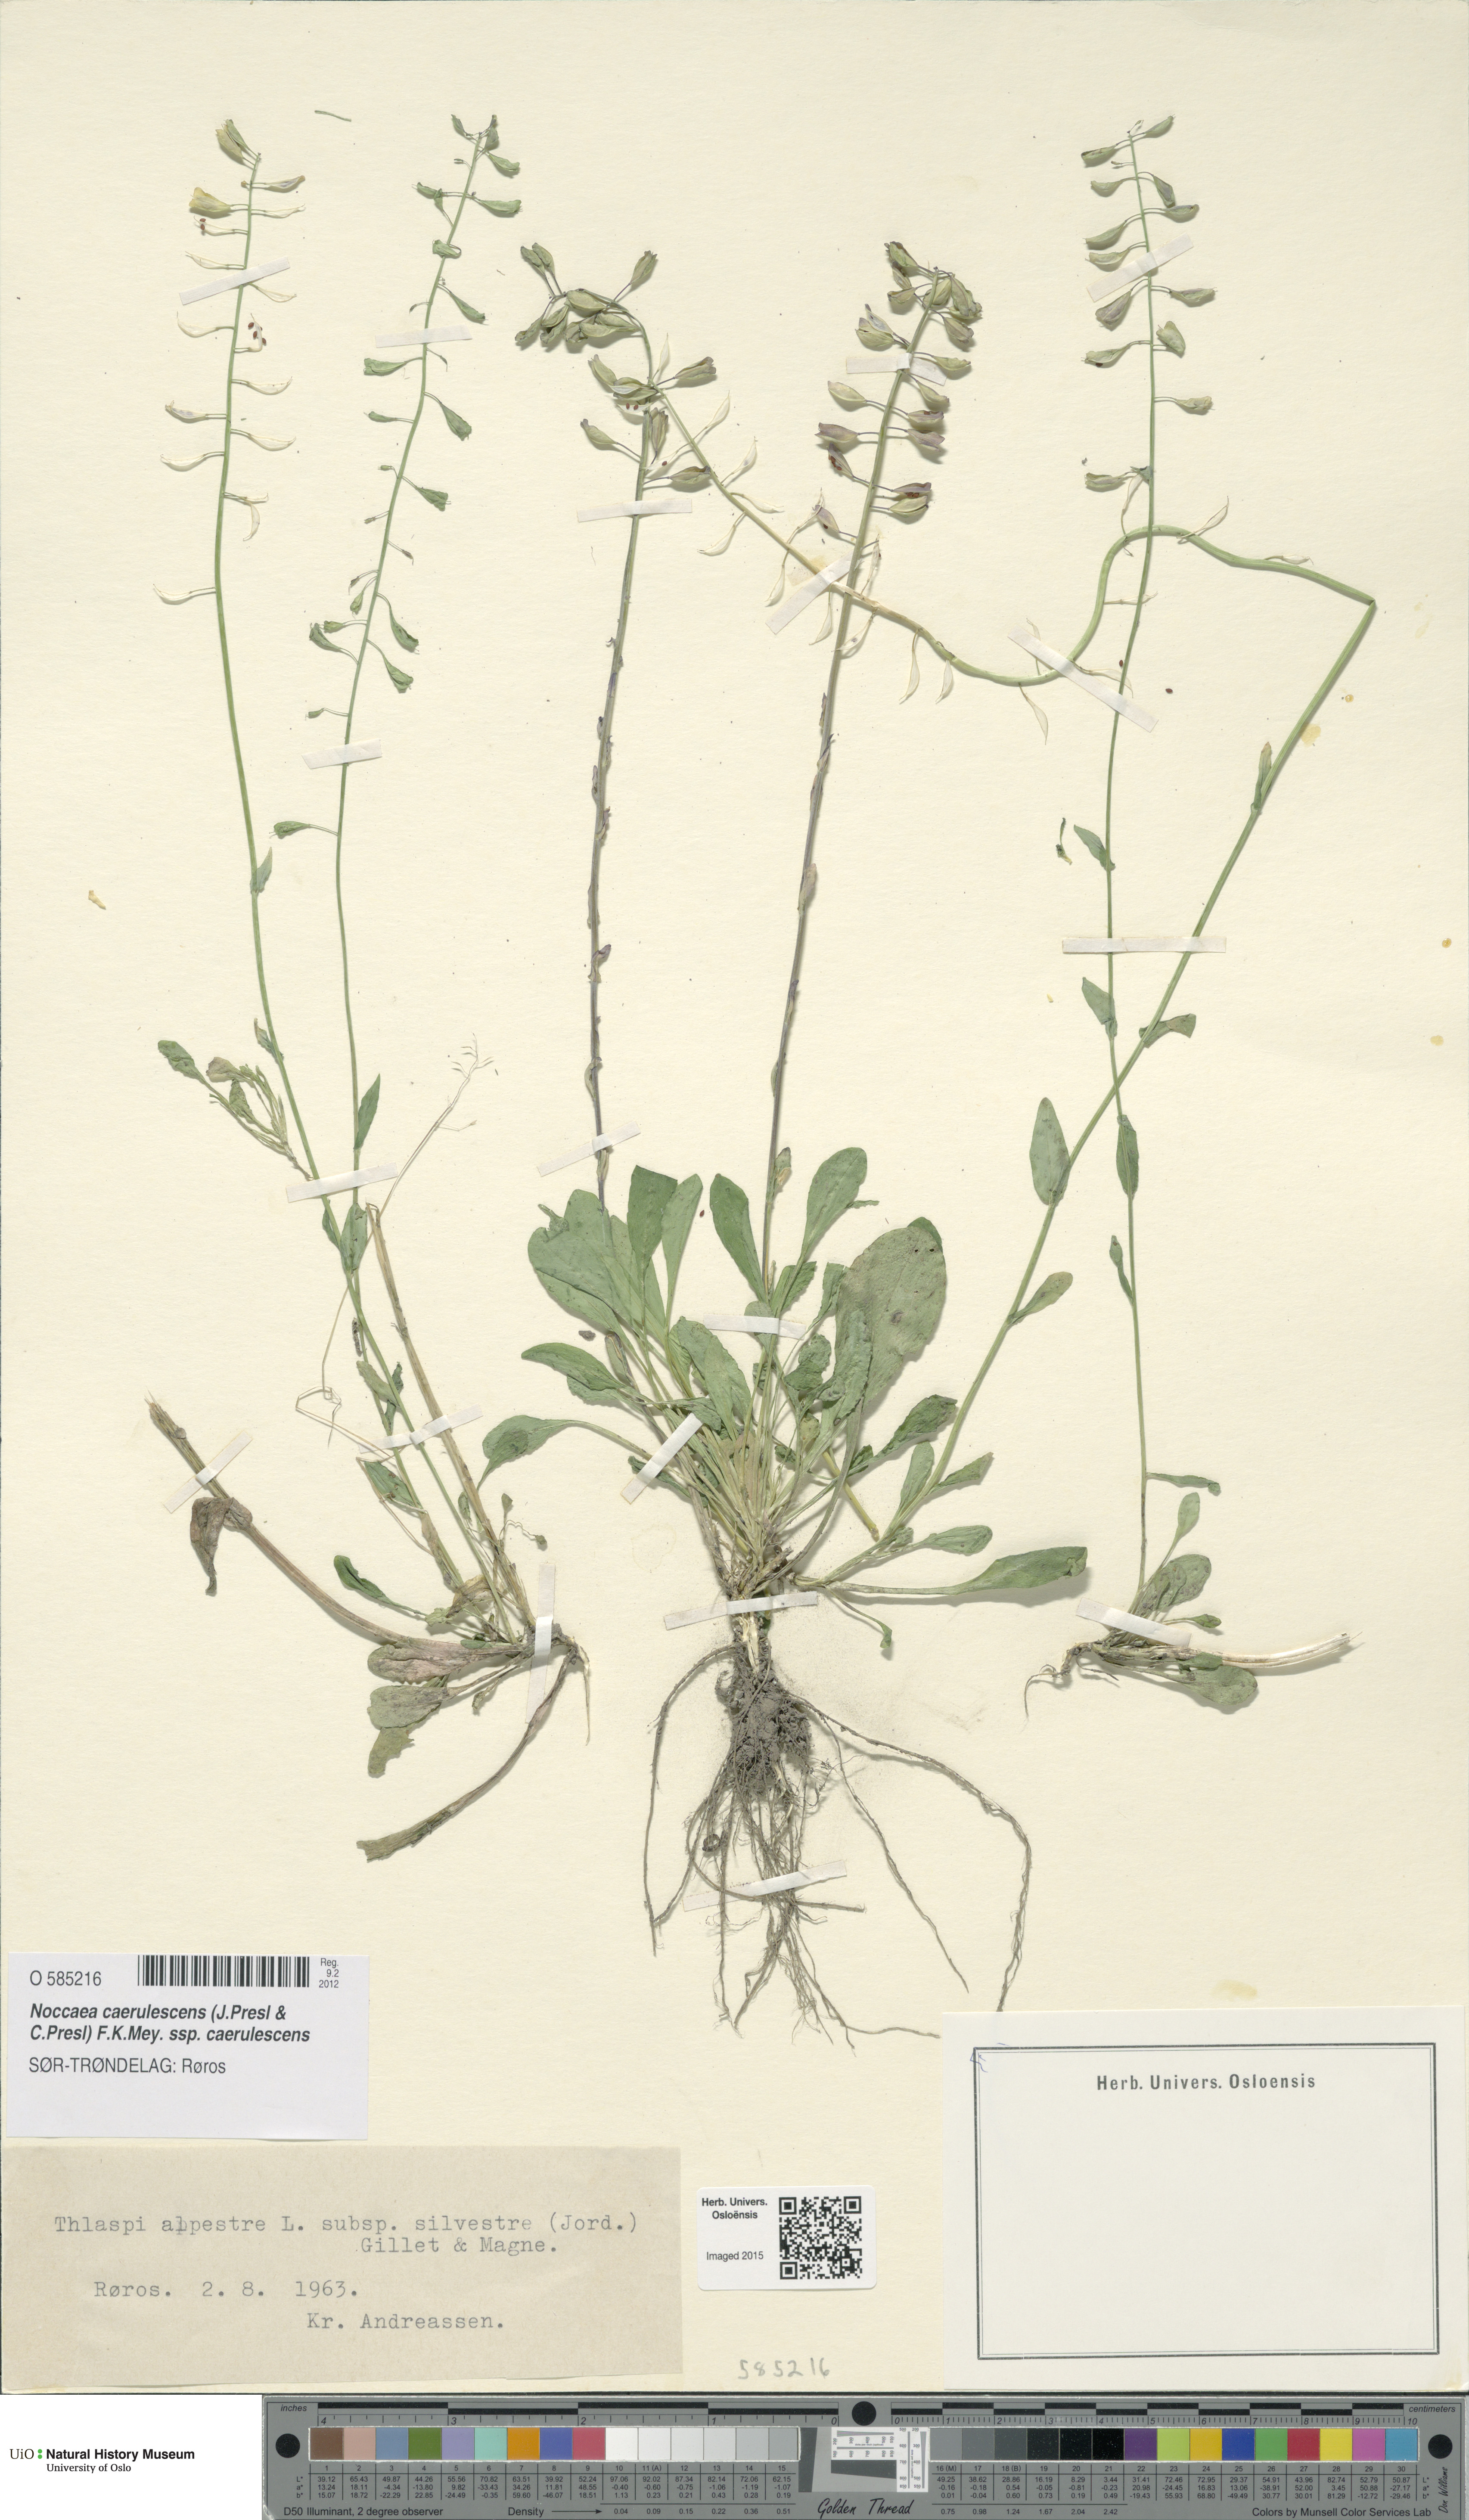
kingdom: Plantae
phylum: Tracheophyta
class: Magnoliopsida
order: Brassicales
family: Brassicaceae
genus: Noccaea
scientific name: Noccaea caerulescens
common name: Alpine pennycress
